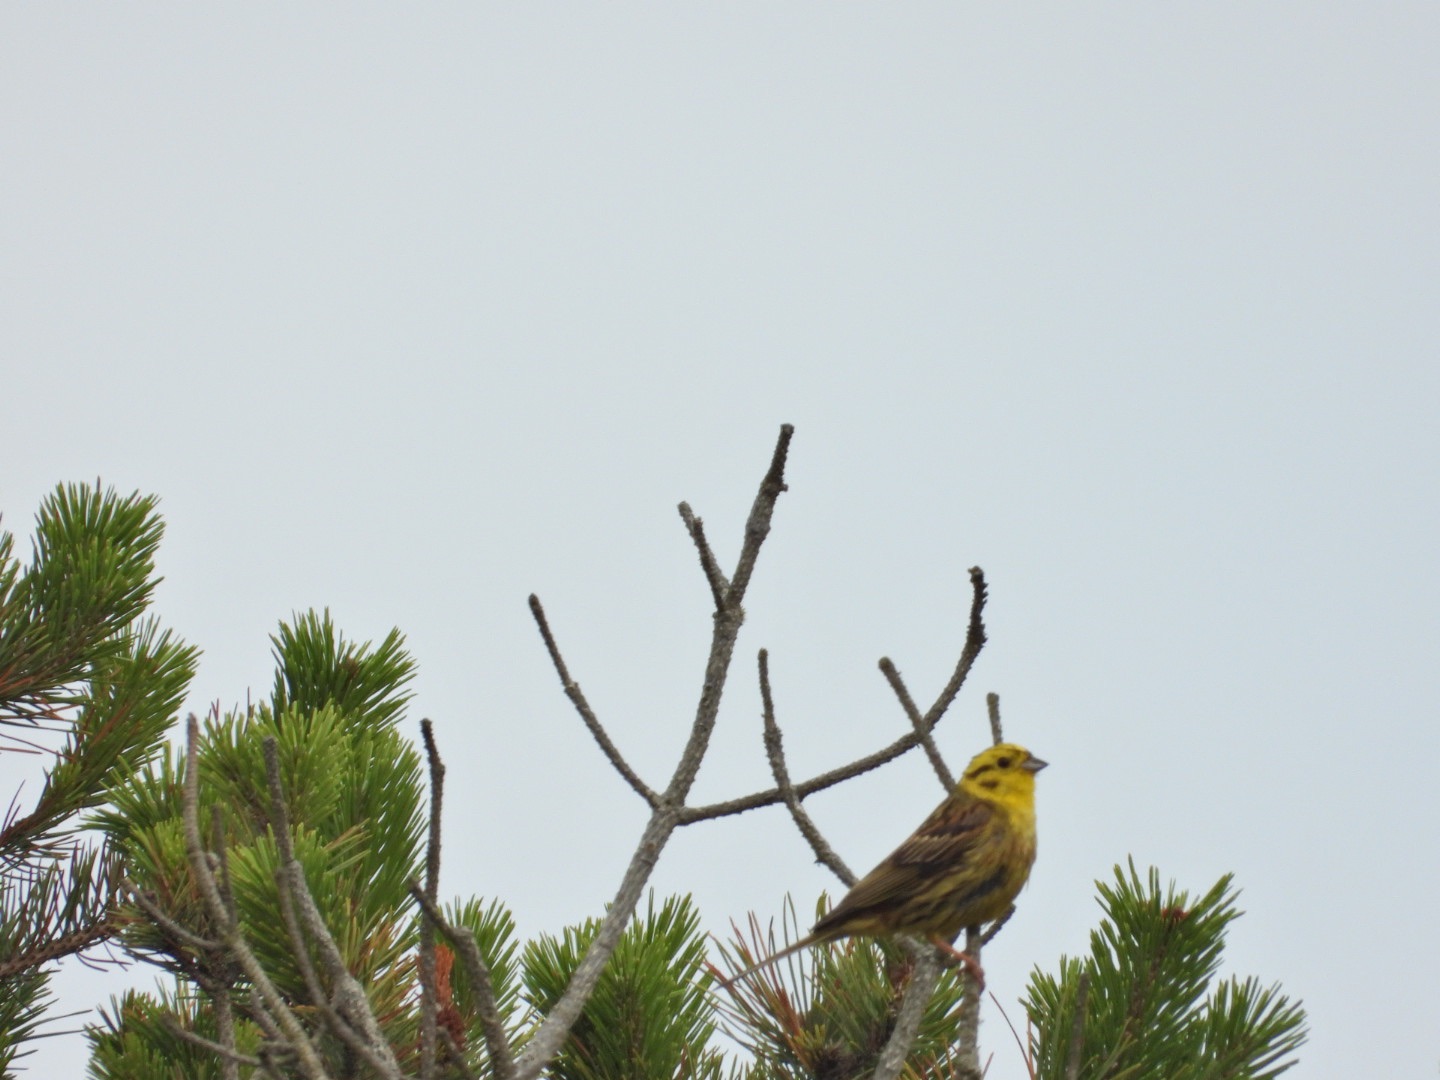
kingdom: Animalia
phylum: Chordata
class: Aves
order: Passeriformes
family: Emberizidae
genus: Emberiza
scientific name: Emberiza citrinella
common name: Gulspurv
